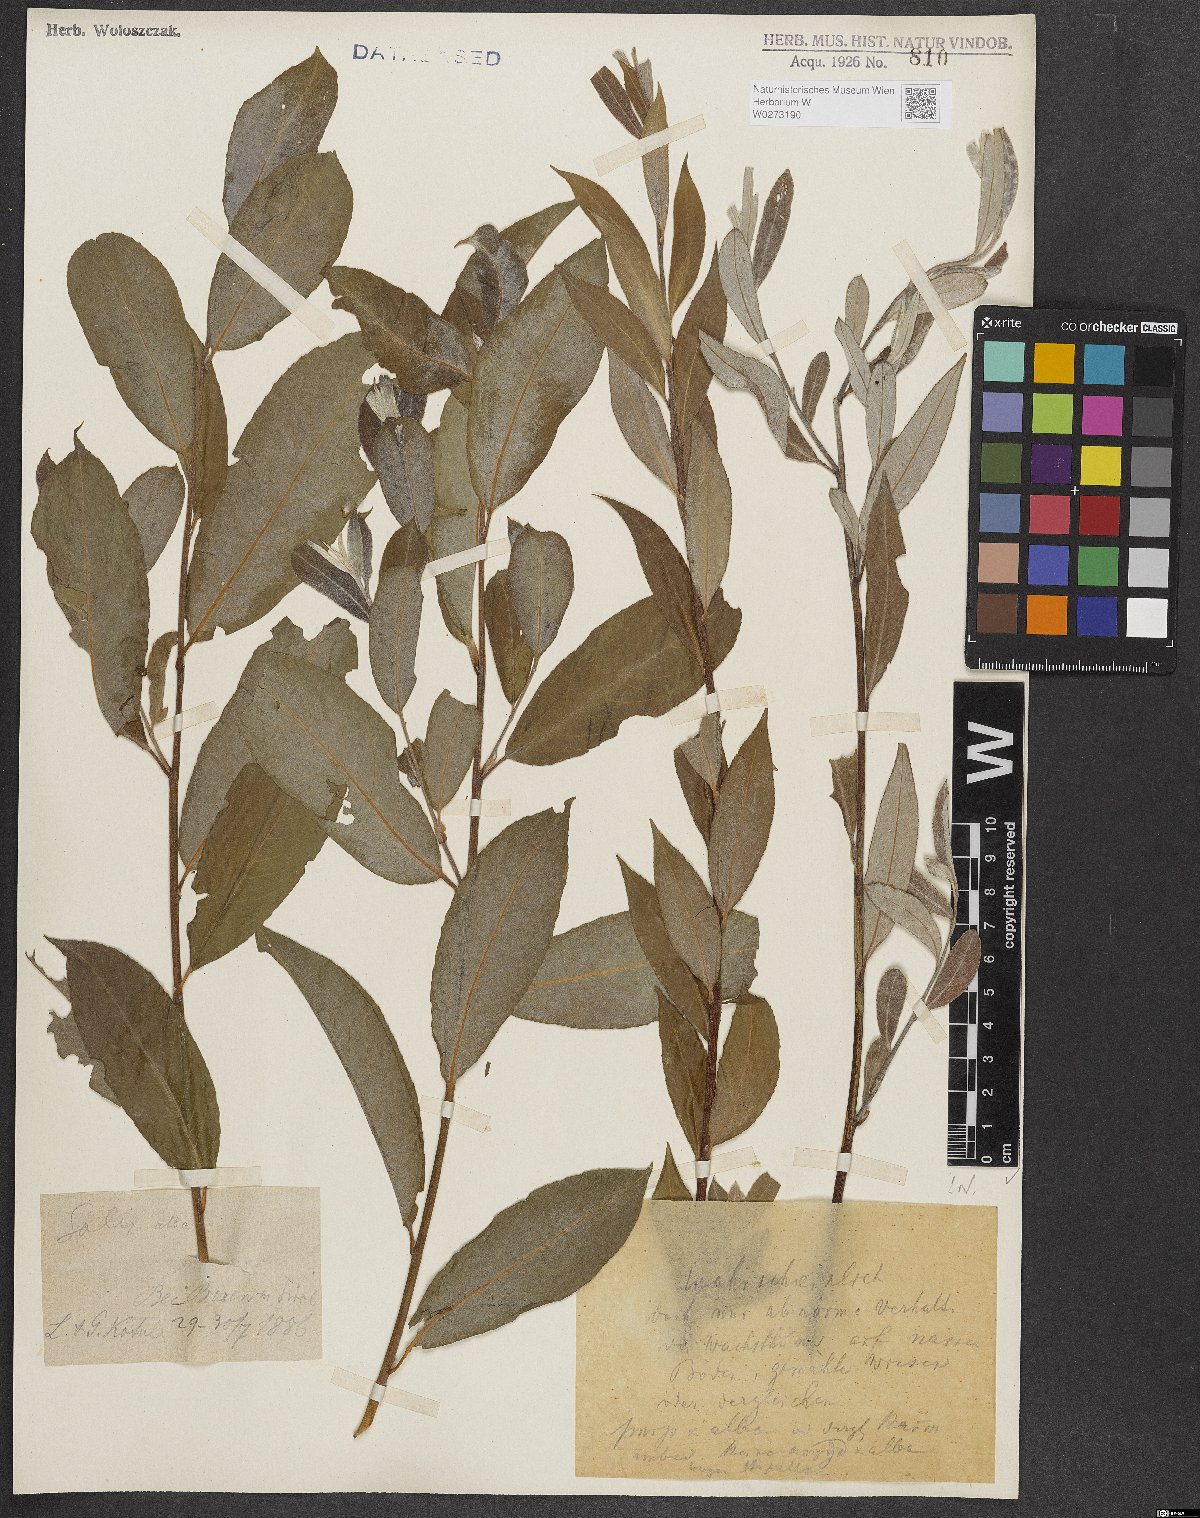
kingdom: Plantae
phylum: Tracheophyta
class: Magnoliopsida
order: Malpighiales
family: Salicaceae
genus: Salix
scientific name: Salix alba
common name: White willow
